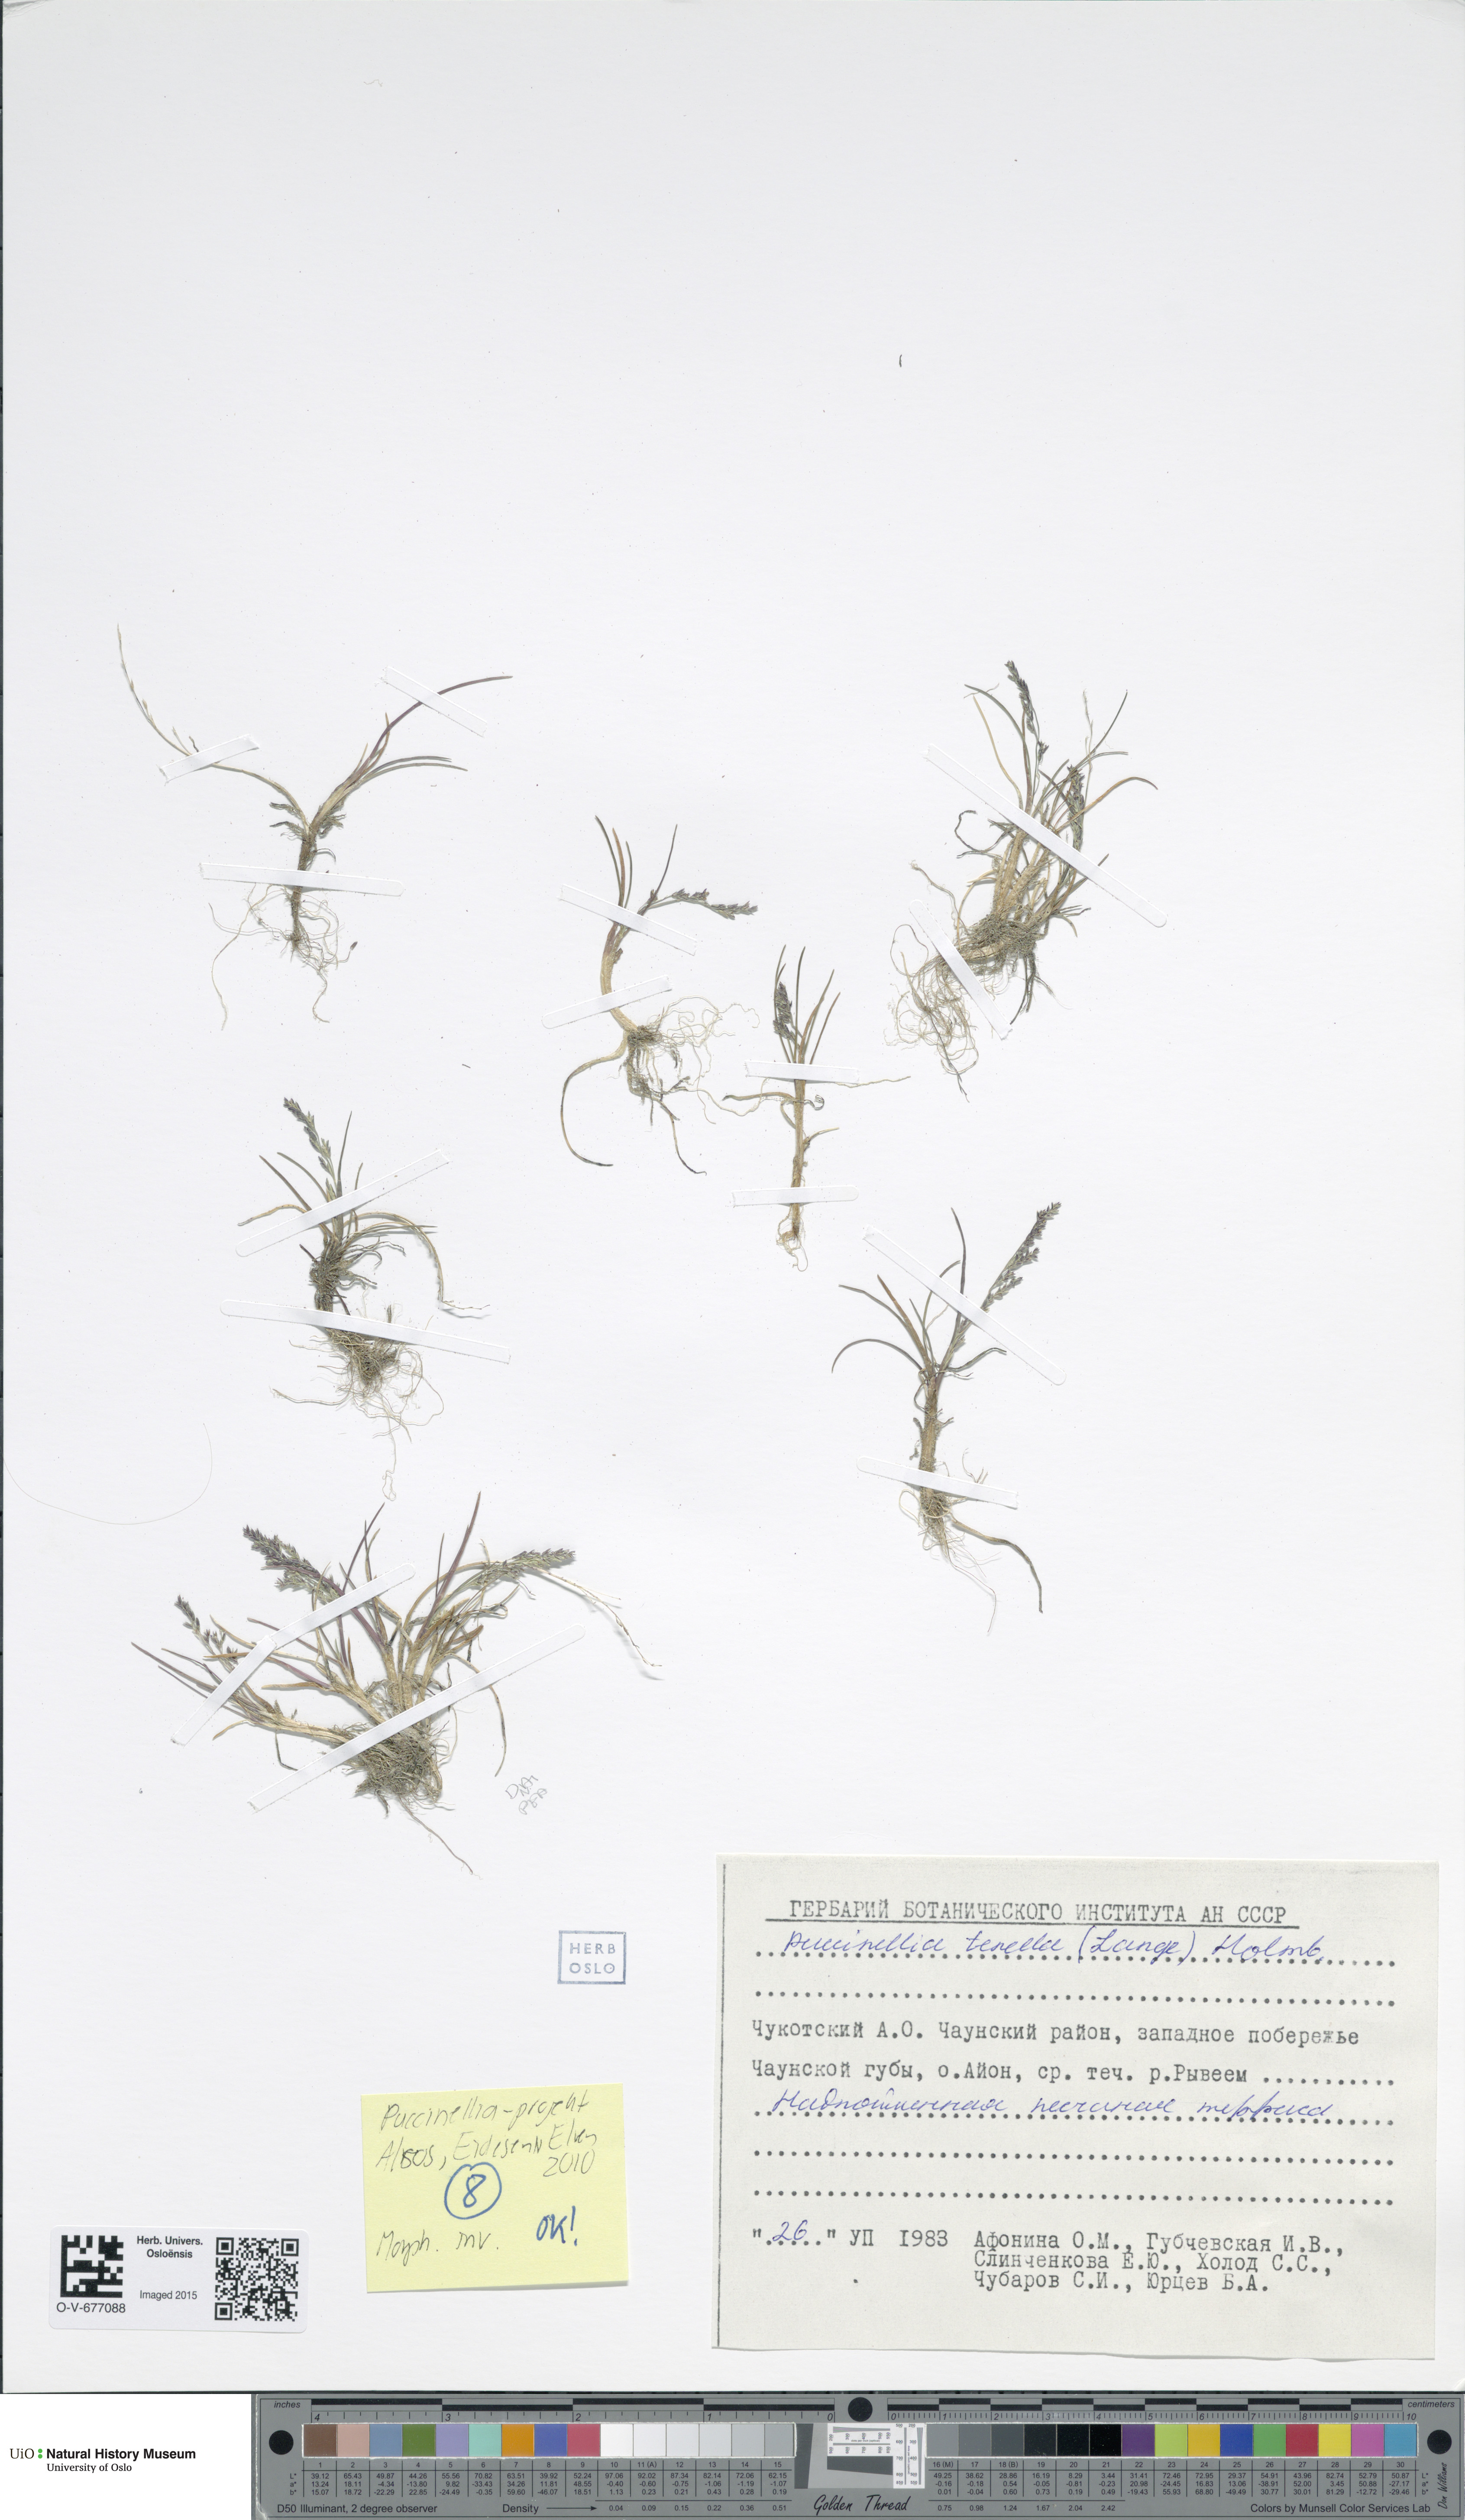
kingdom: Plantae
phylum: Tracheophyta
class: Liliopsida
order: Poales
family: Poaceae
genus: Puccinellia
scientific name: Puccinellia tenella
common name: Tundra alkaligrass
